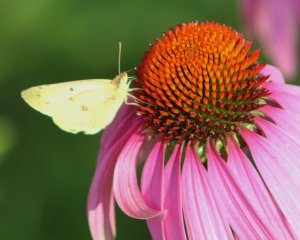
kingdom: Animalia
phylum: Arthropoda
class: Insecta
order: Lepidoptera
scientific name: Lepidoptera
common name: Butterflies
